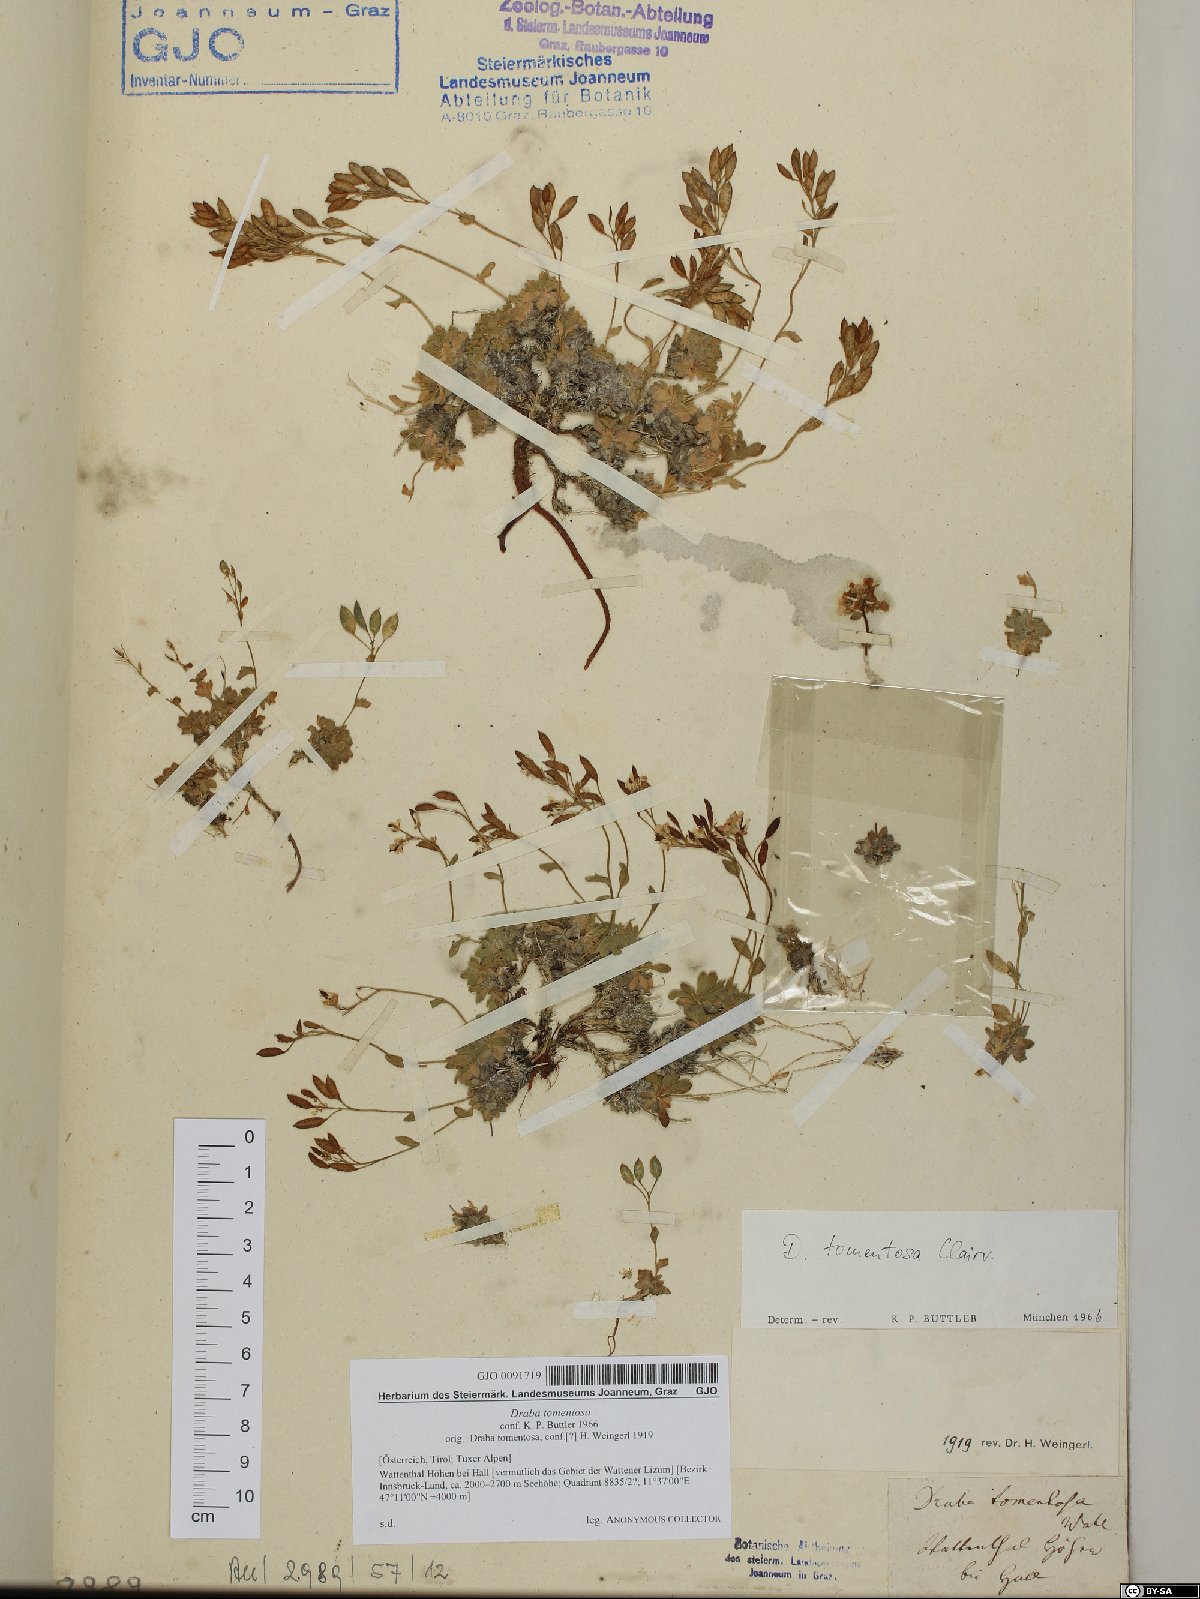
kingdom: Plantae
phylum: Tracheophyta
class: Magnoliopsida
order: Brassicales
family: Brassicaceae
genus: Draba
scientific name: Draba tomentosa
